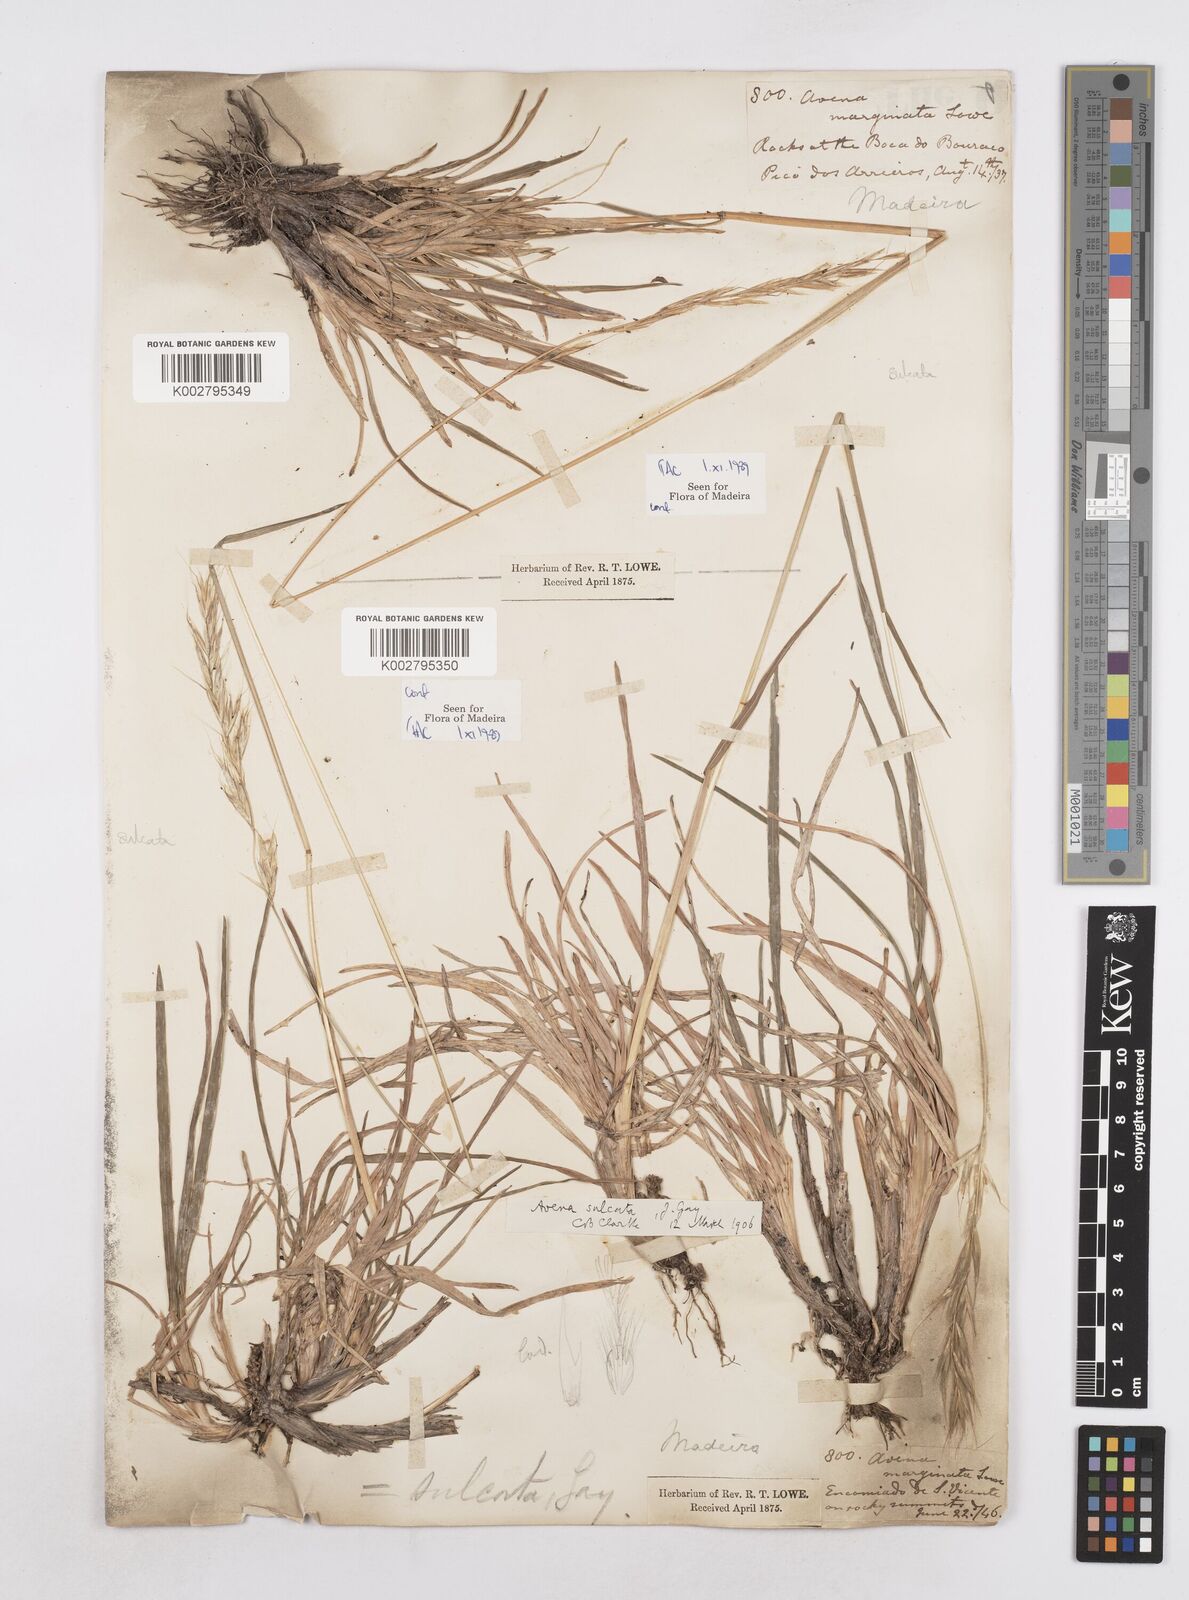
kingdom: Plantae
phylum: Tracheophyta
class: Liliopsida
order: Poales
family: Poaceae
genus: Helictotrichon
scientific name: Helictotrichon
